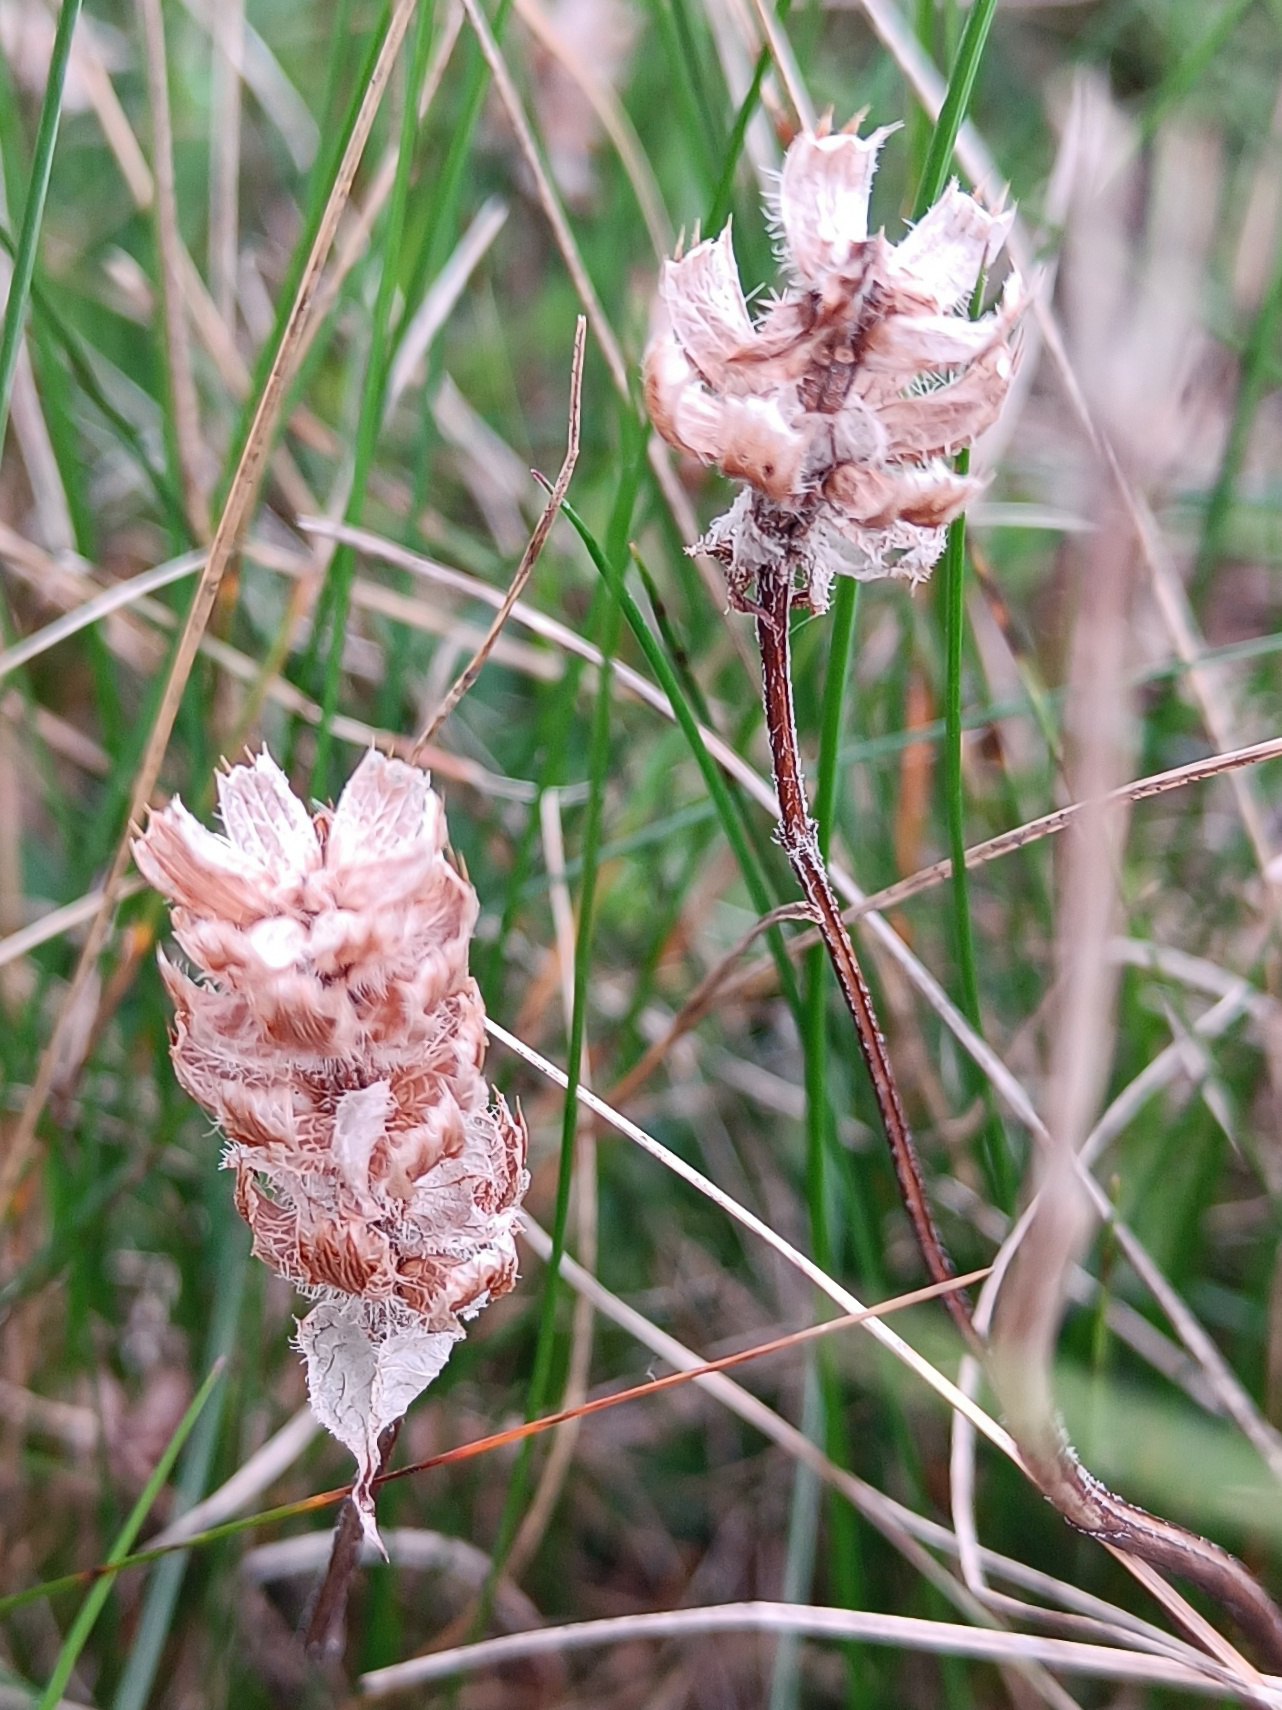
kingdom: Plantae
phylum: Tracheophyta
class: Magnoliopsida
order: Lamiales
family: Lamiaceae
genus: Prunella
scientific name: Prunella vulgaris
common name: Almindelig brunelle
